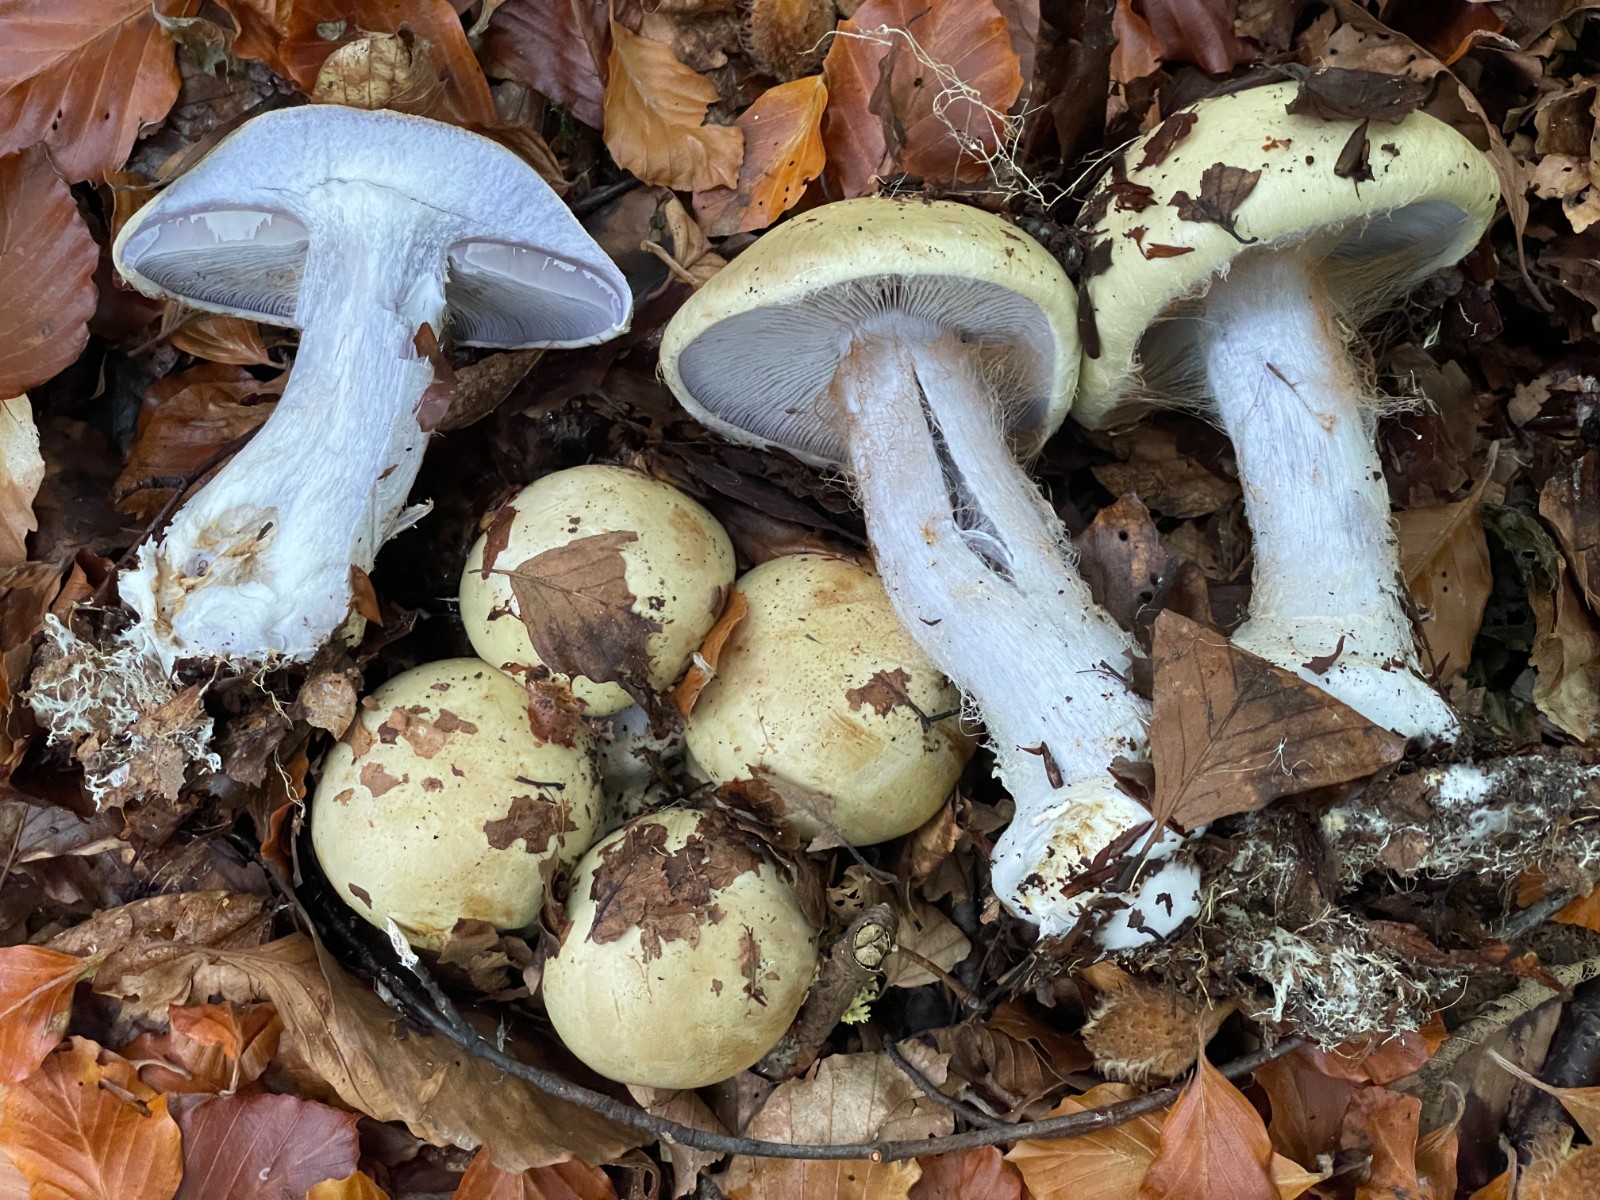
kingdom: Fungi
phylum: Basidiomycota
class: Agaricomycetes
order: Agaricales
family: Cortinariaceae
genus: Cortinarius
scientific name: Cortinarius anserinus
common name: bøge-slørhat
